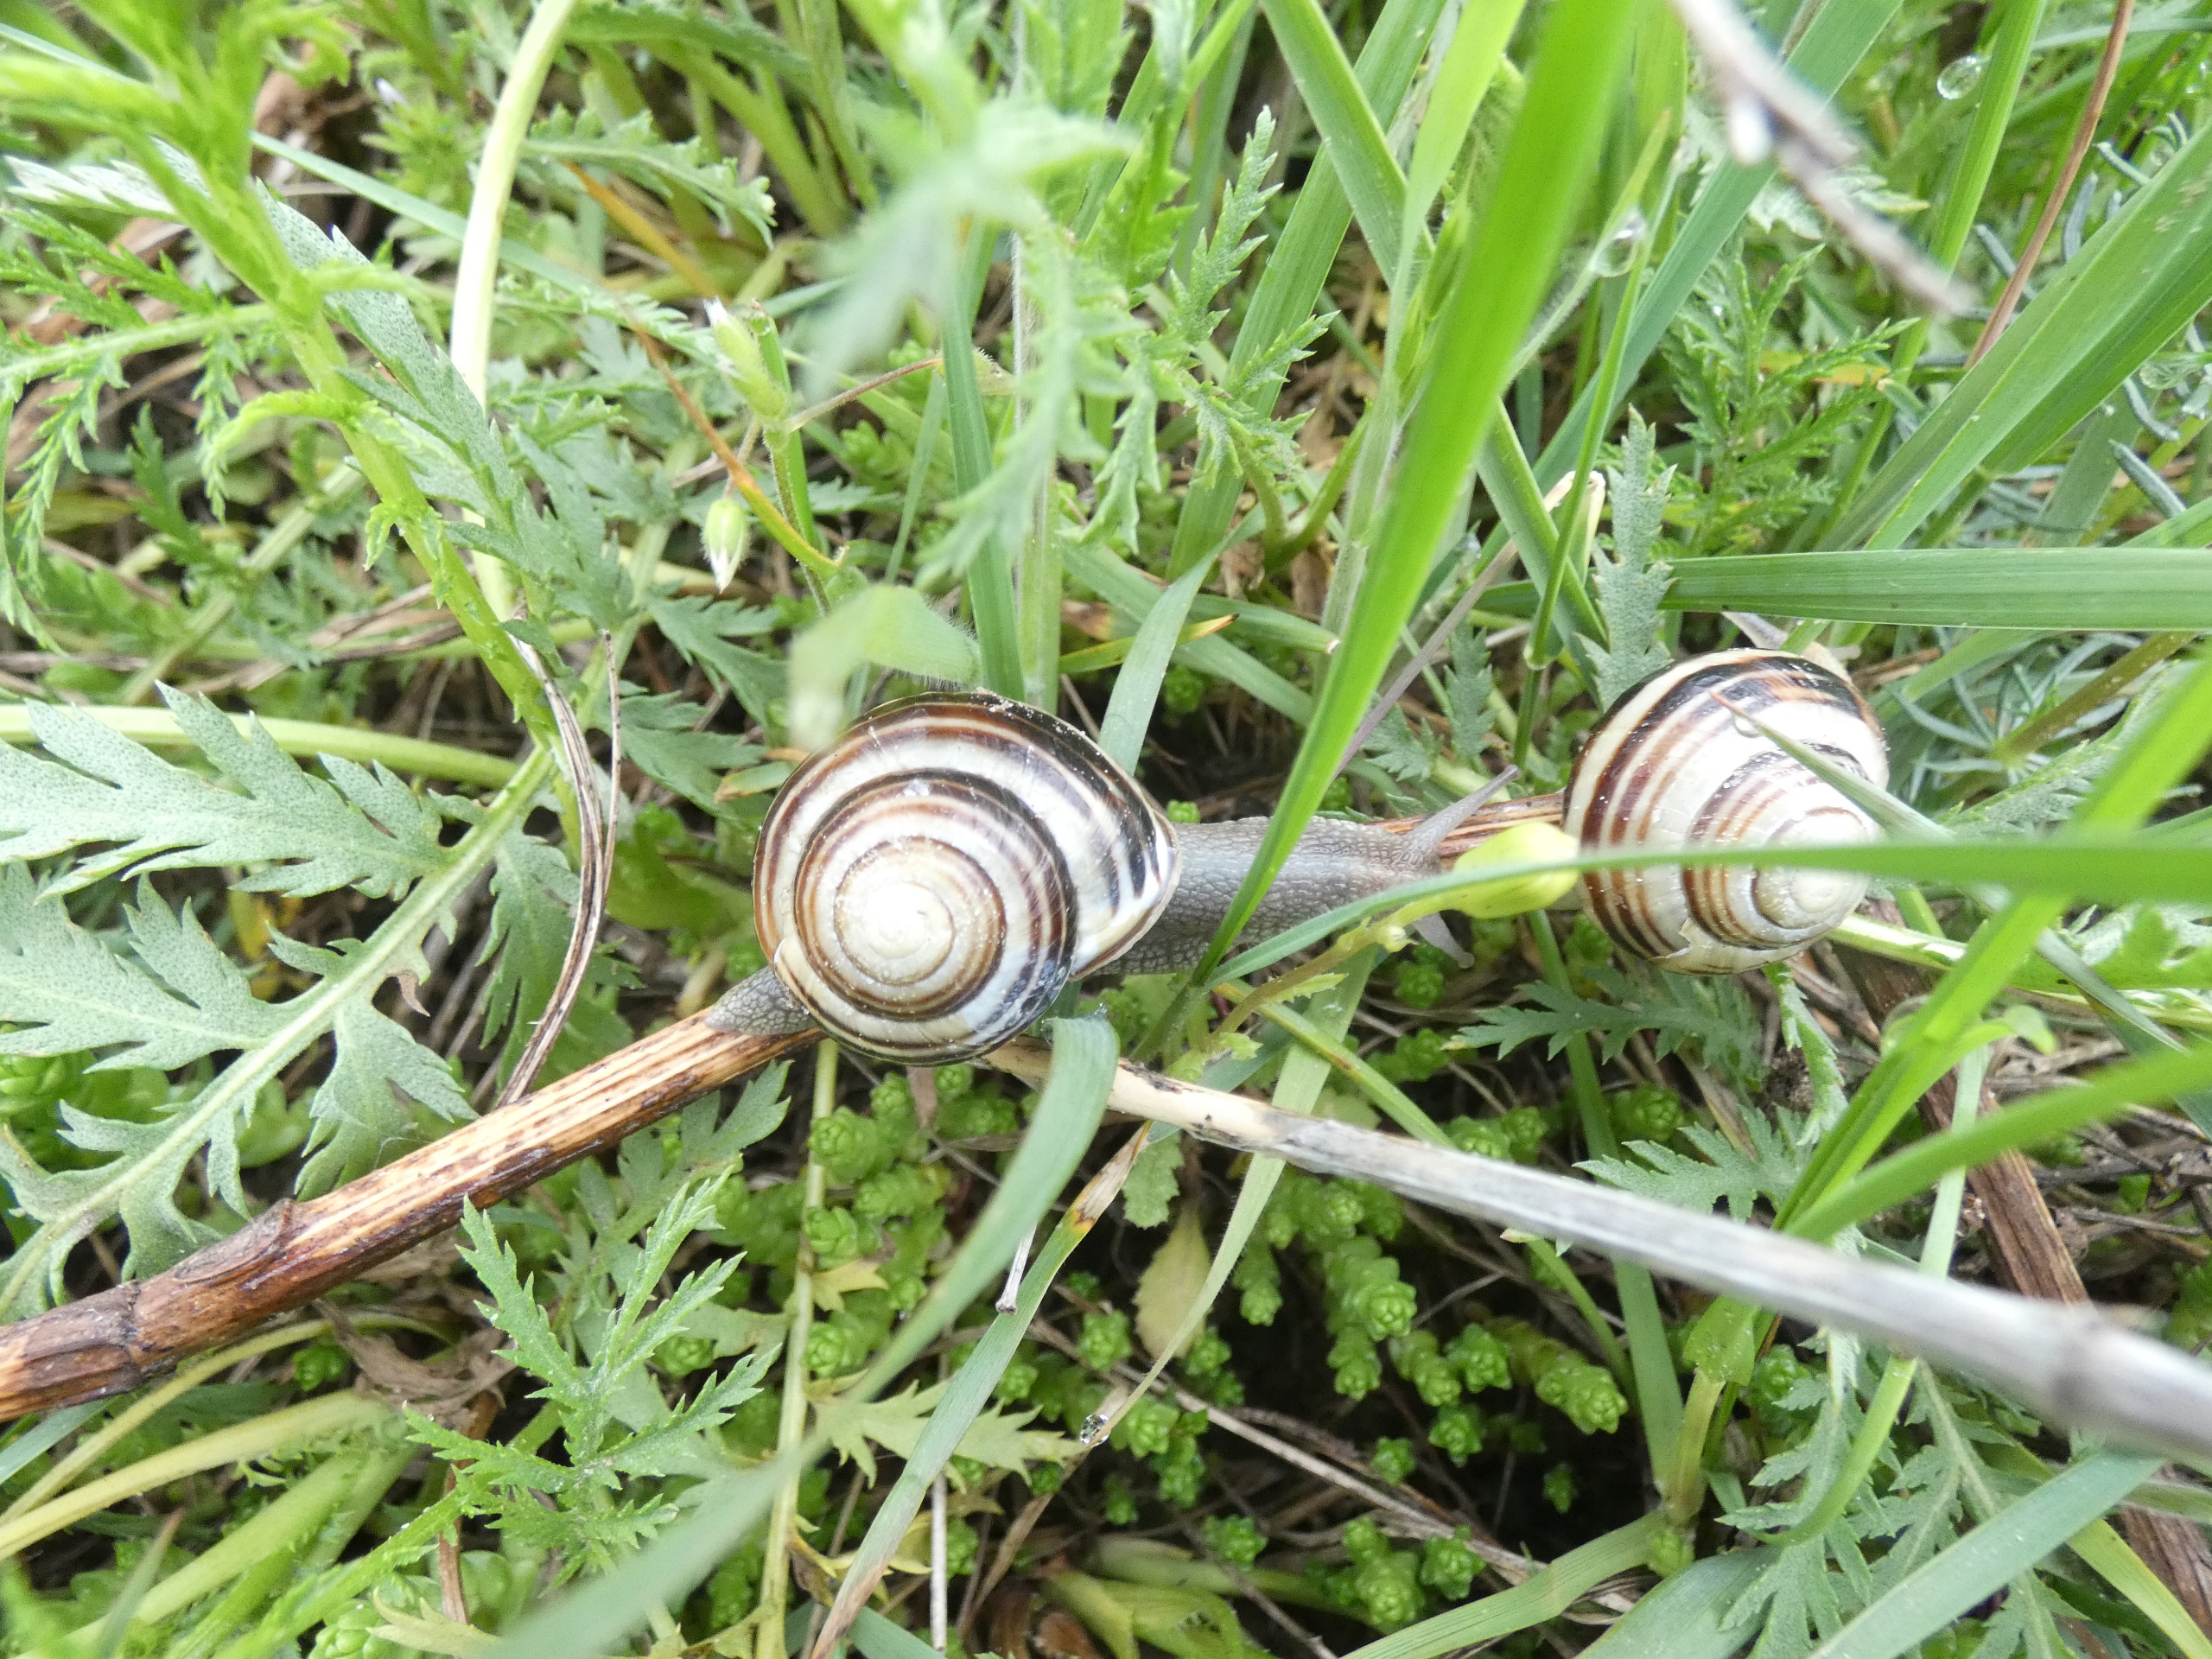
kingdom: Animalia
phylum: Mollusca
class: Gastropoda
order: Stylommatophora
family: Helicidae
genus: Cepaea
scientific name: Cepaea nemoralis
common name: Lundsnegl
